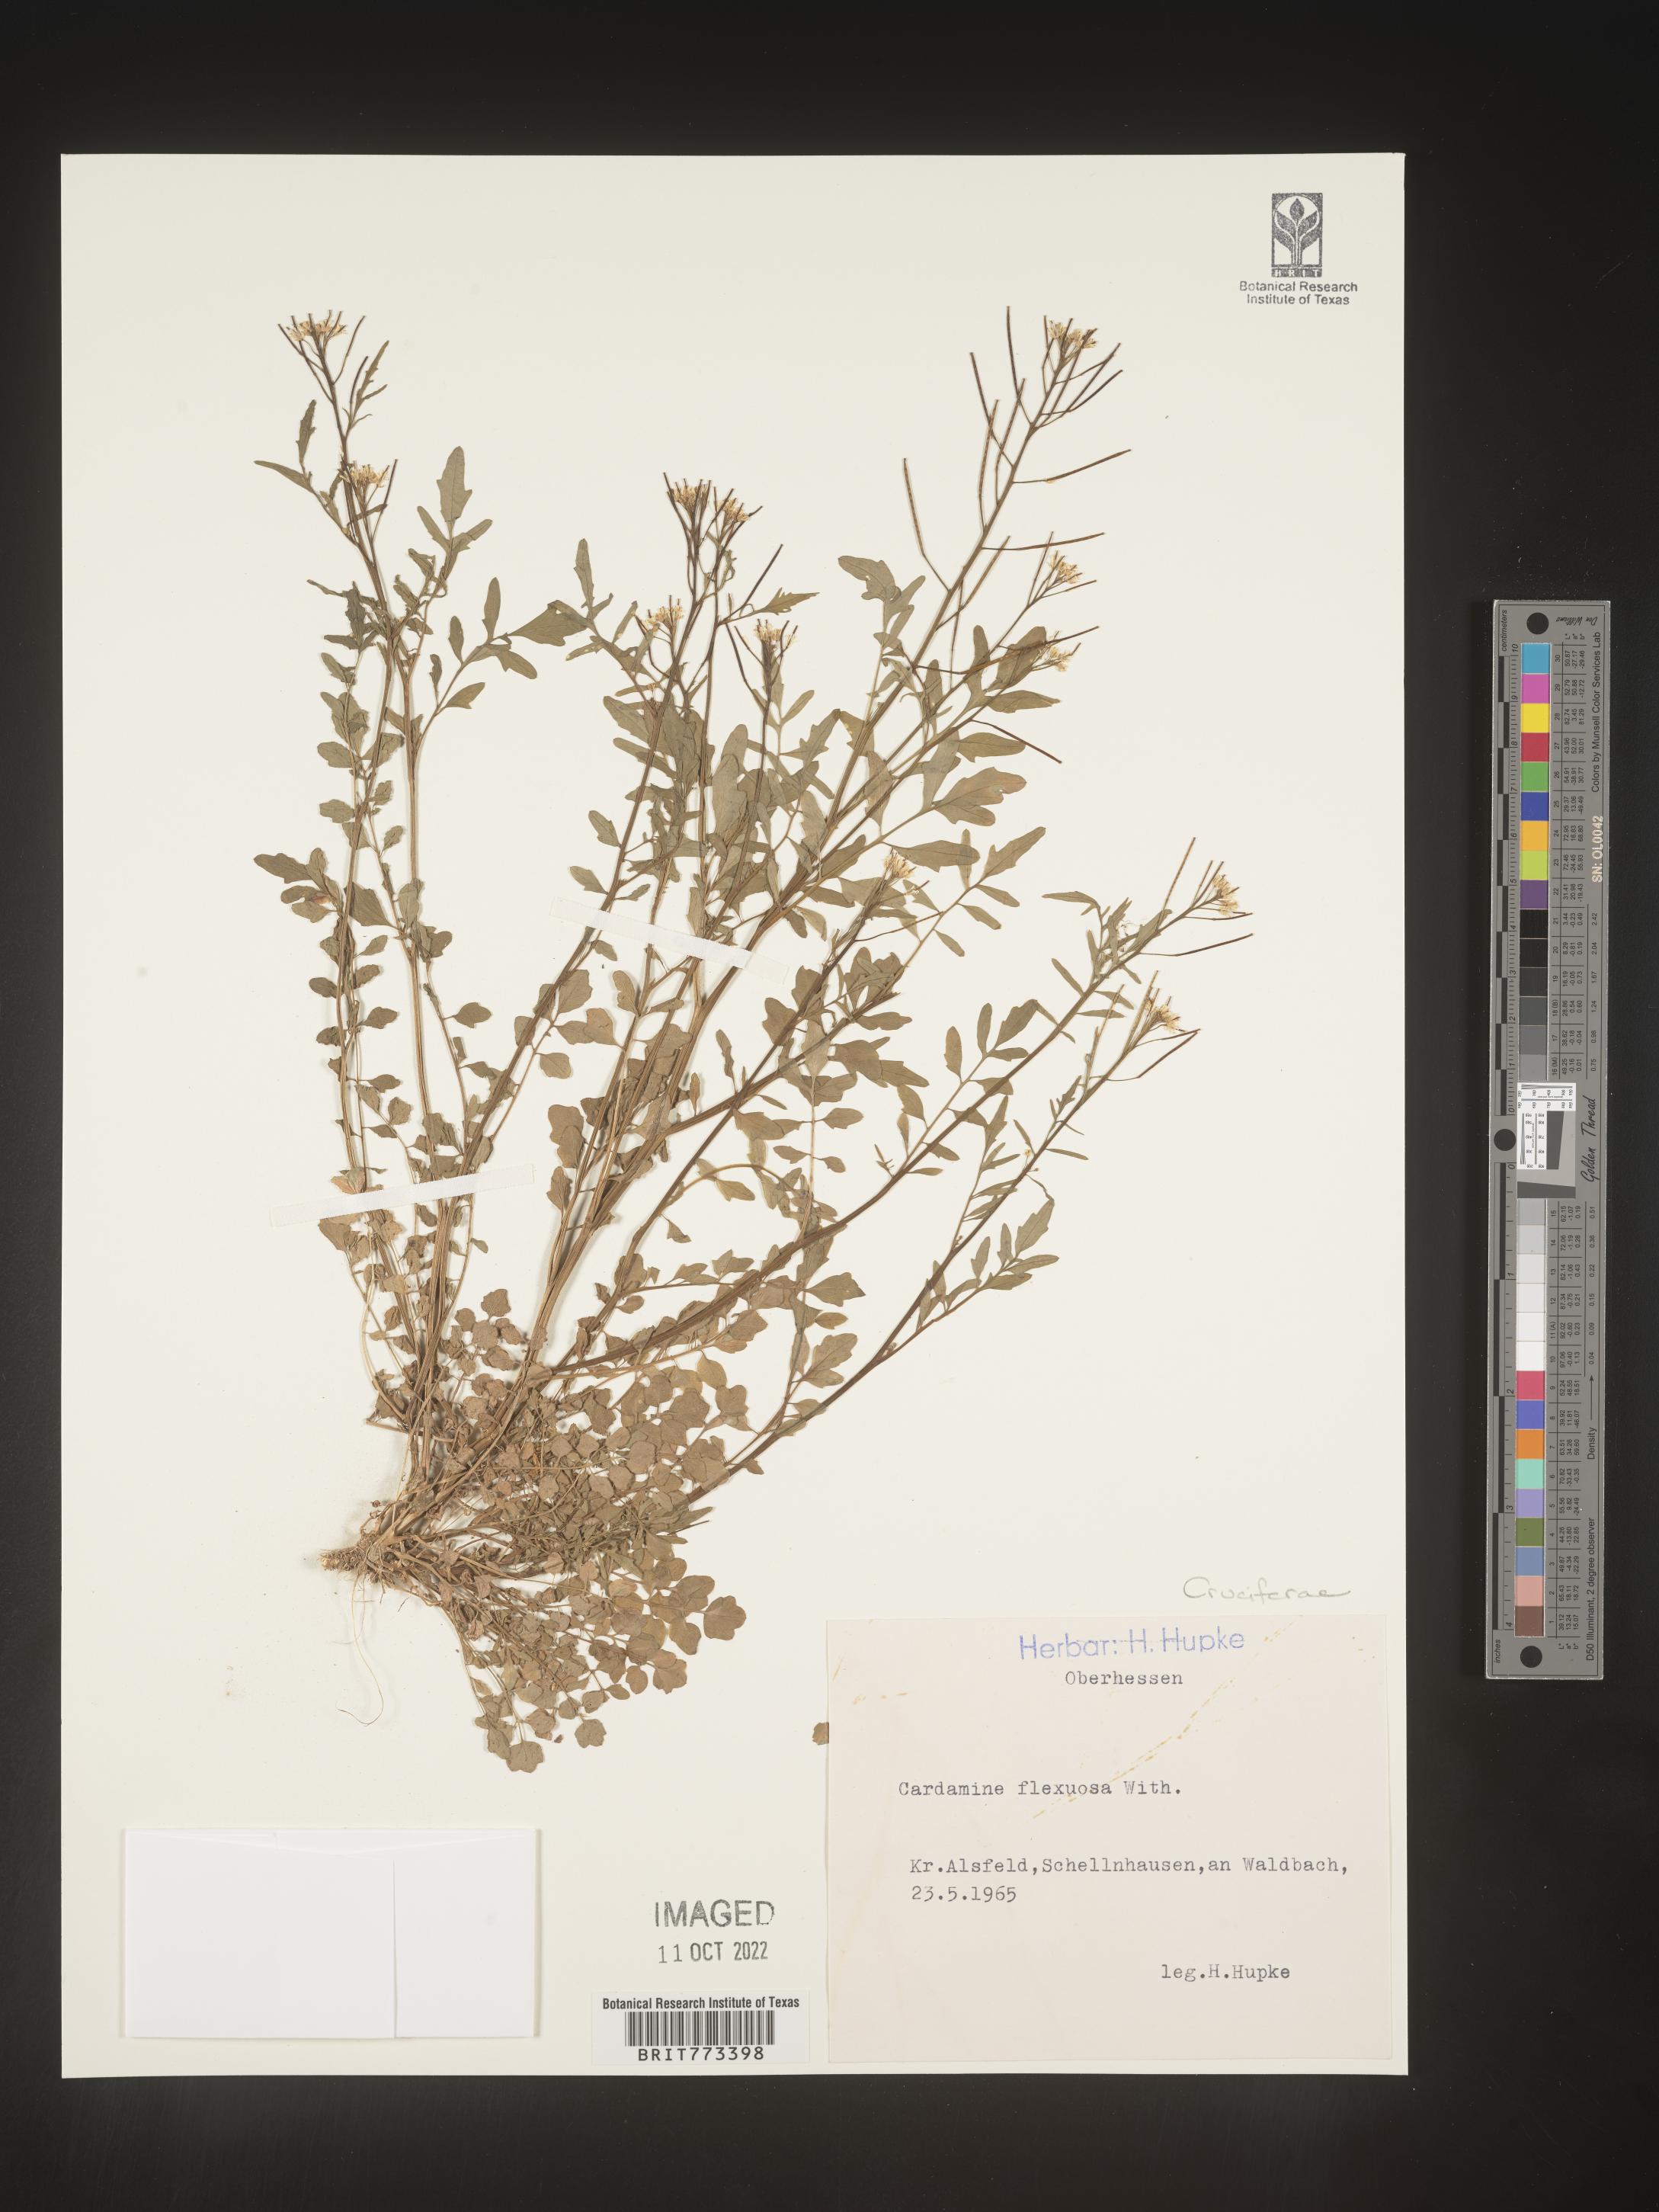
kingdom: Plantae
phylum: Tracheophyta
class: Magnoliopsida
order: Brassicales
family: Brassicaceae
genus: Cardamine
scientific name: Cardamine
